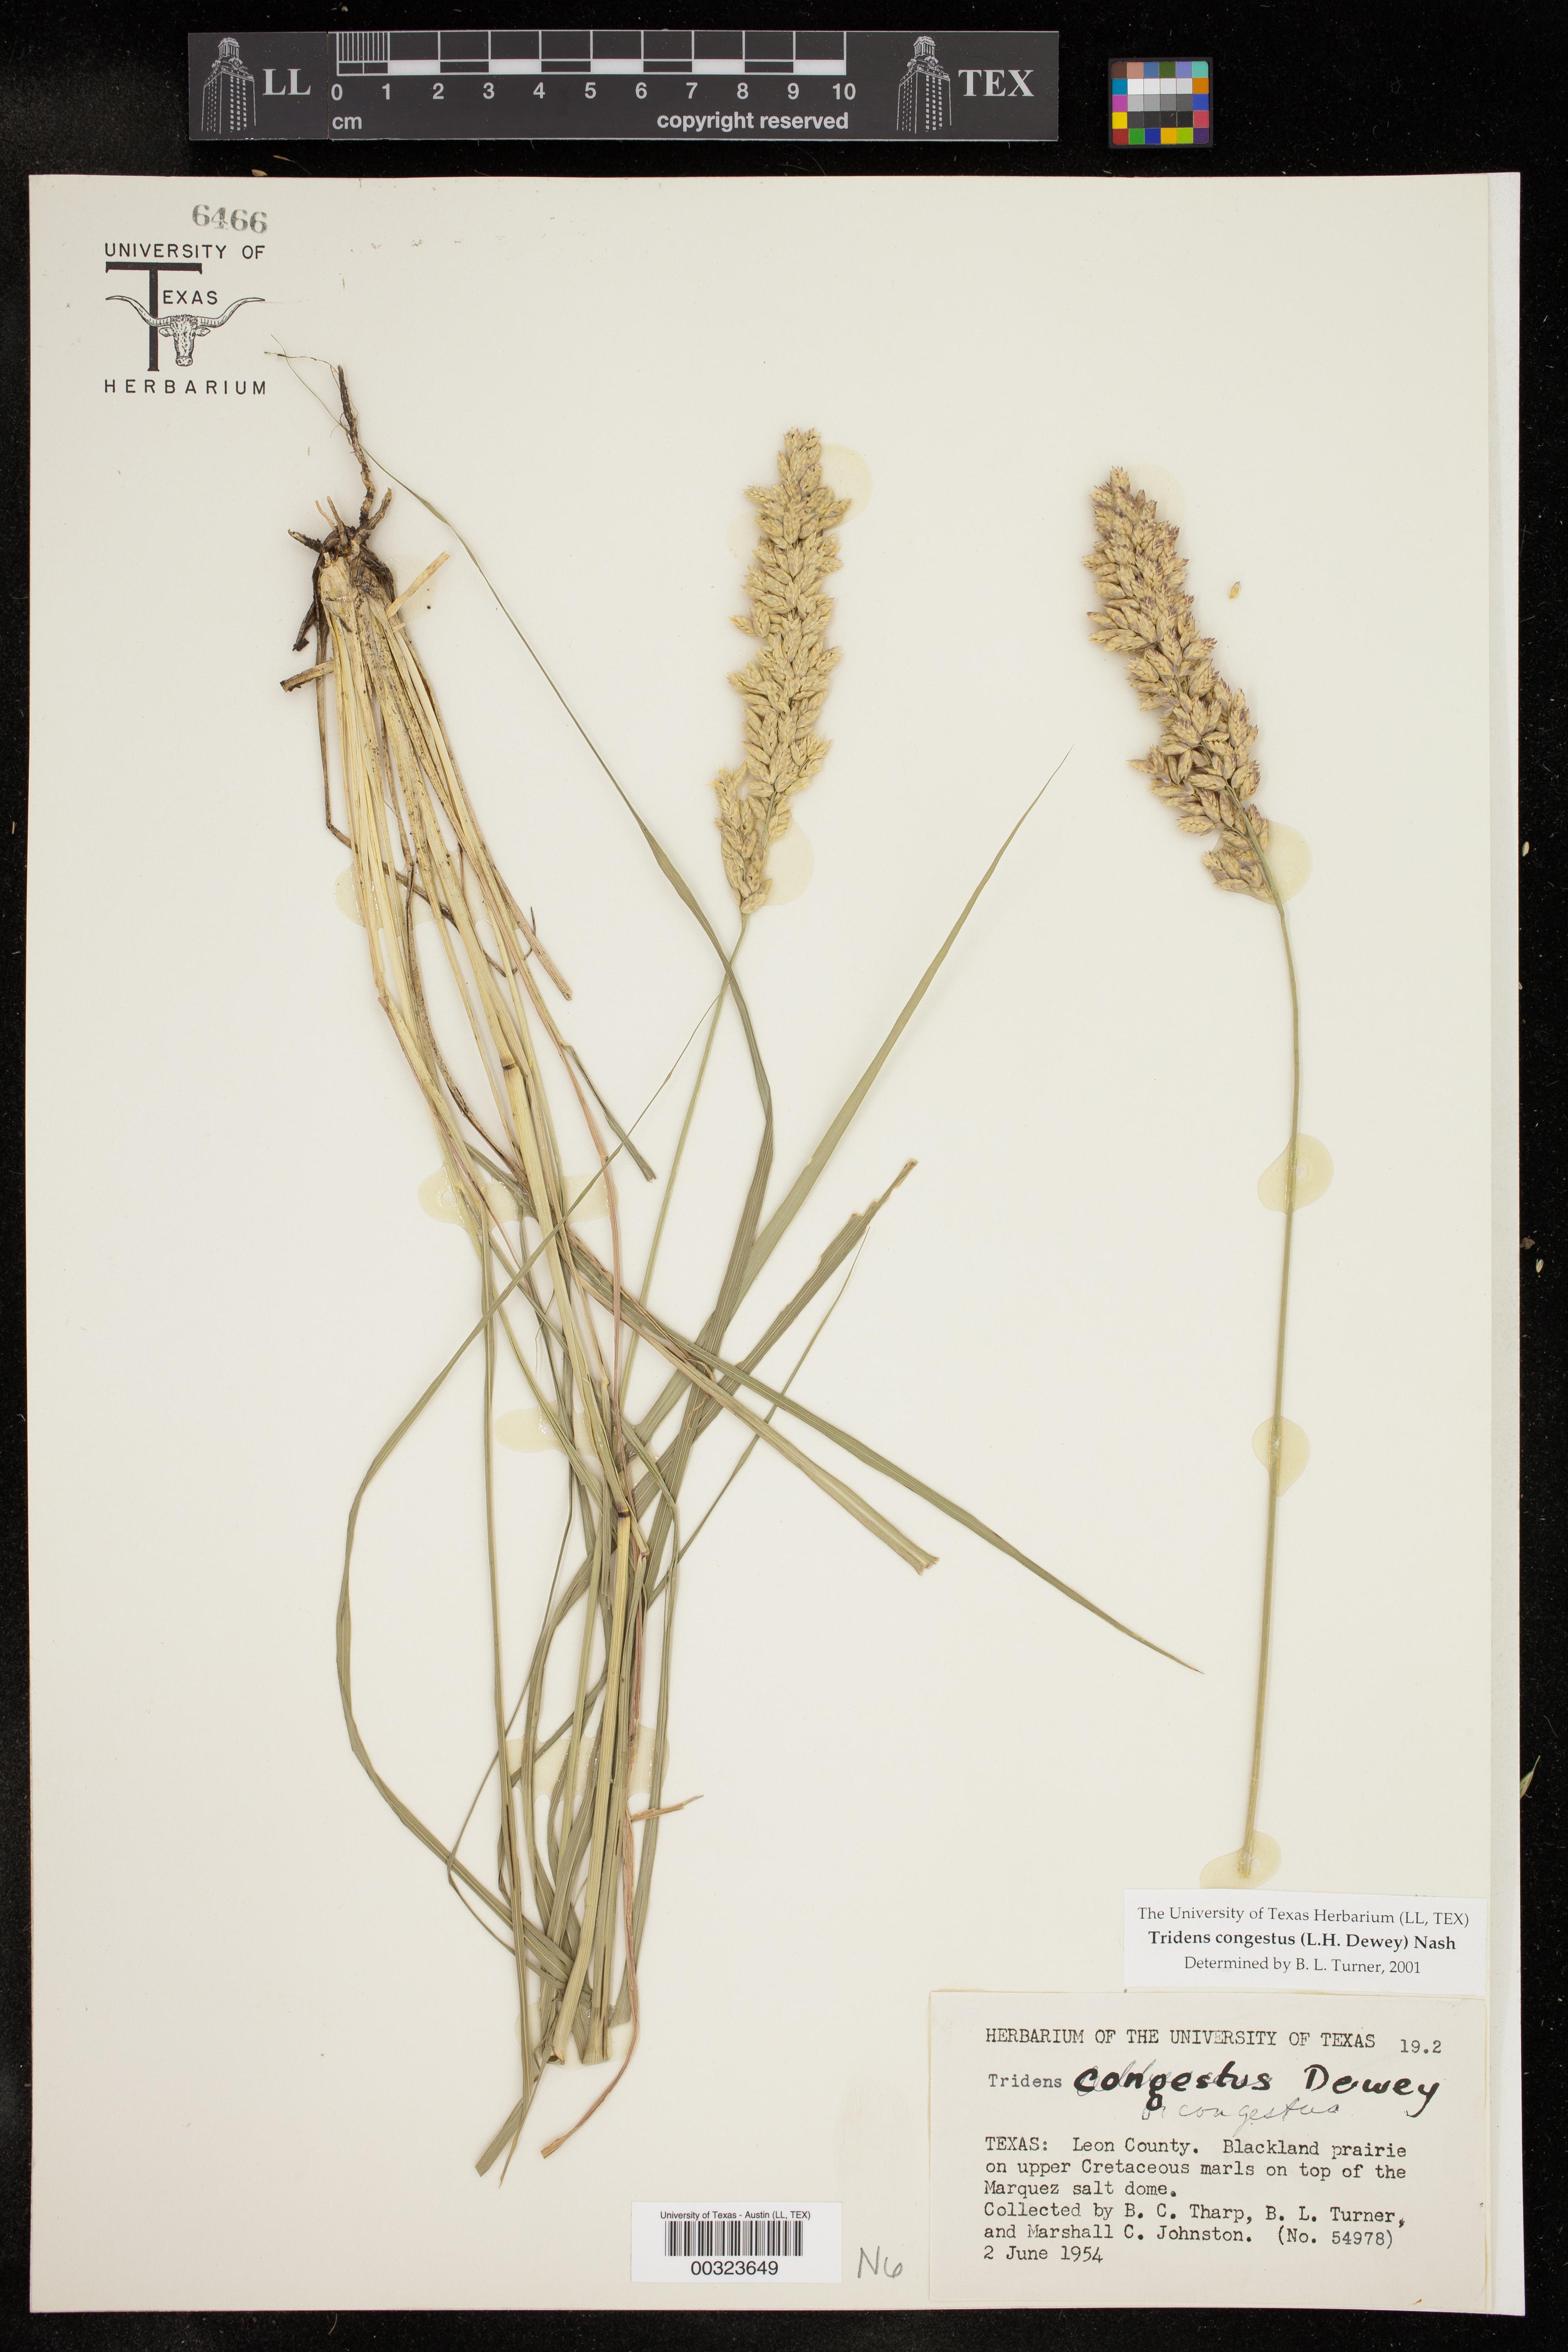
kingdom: Plantae
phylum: Tracheophyta
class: Liliopsida
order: Poales
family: Poaceae
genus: Tridens
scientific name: Tridens congestus
